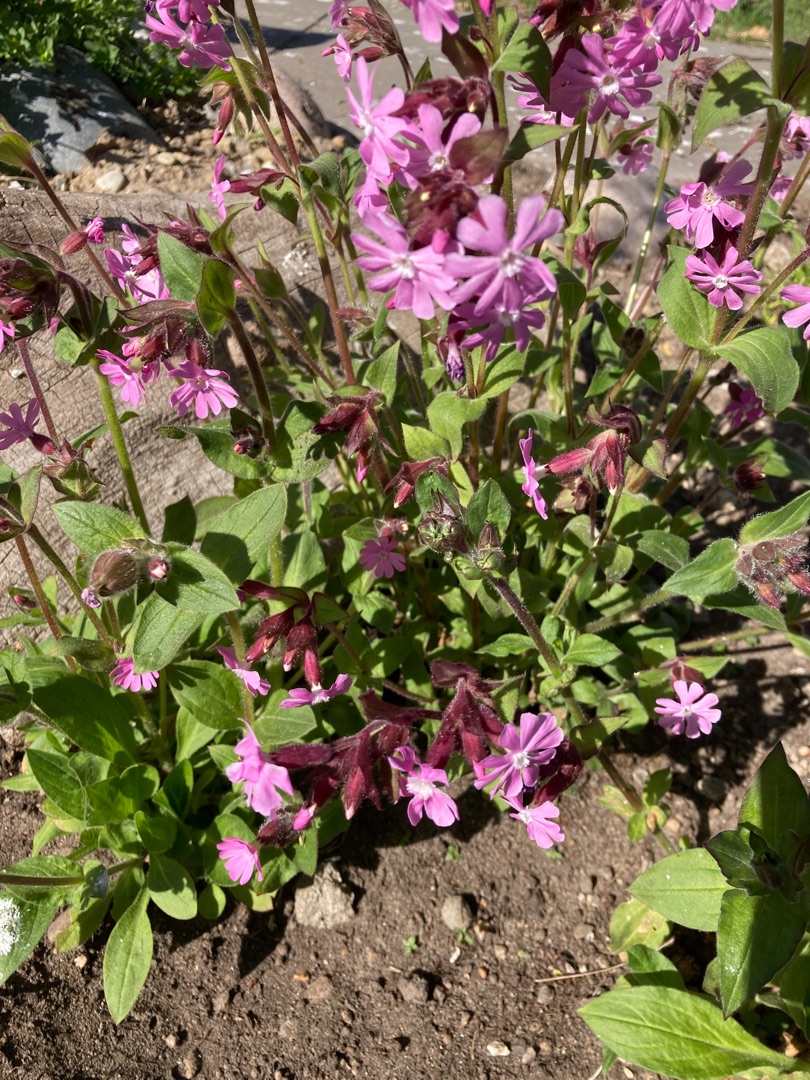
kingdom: Plantae
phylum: Tracheophyta
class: Magnoliopsida
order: Caryophyllales
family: Caryophyllaceae
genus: Silene
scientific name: Silene dioica
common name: Dagpragtstjerne
